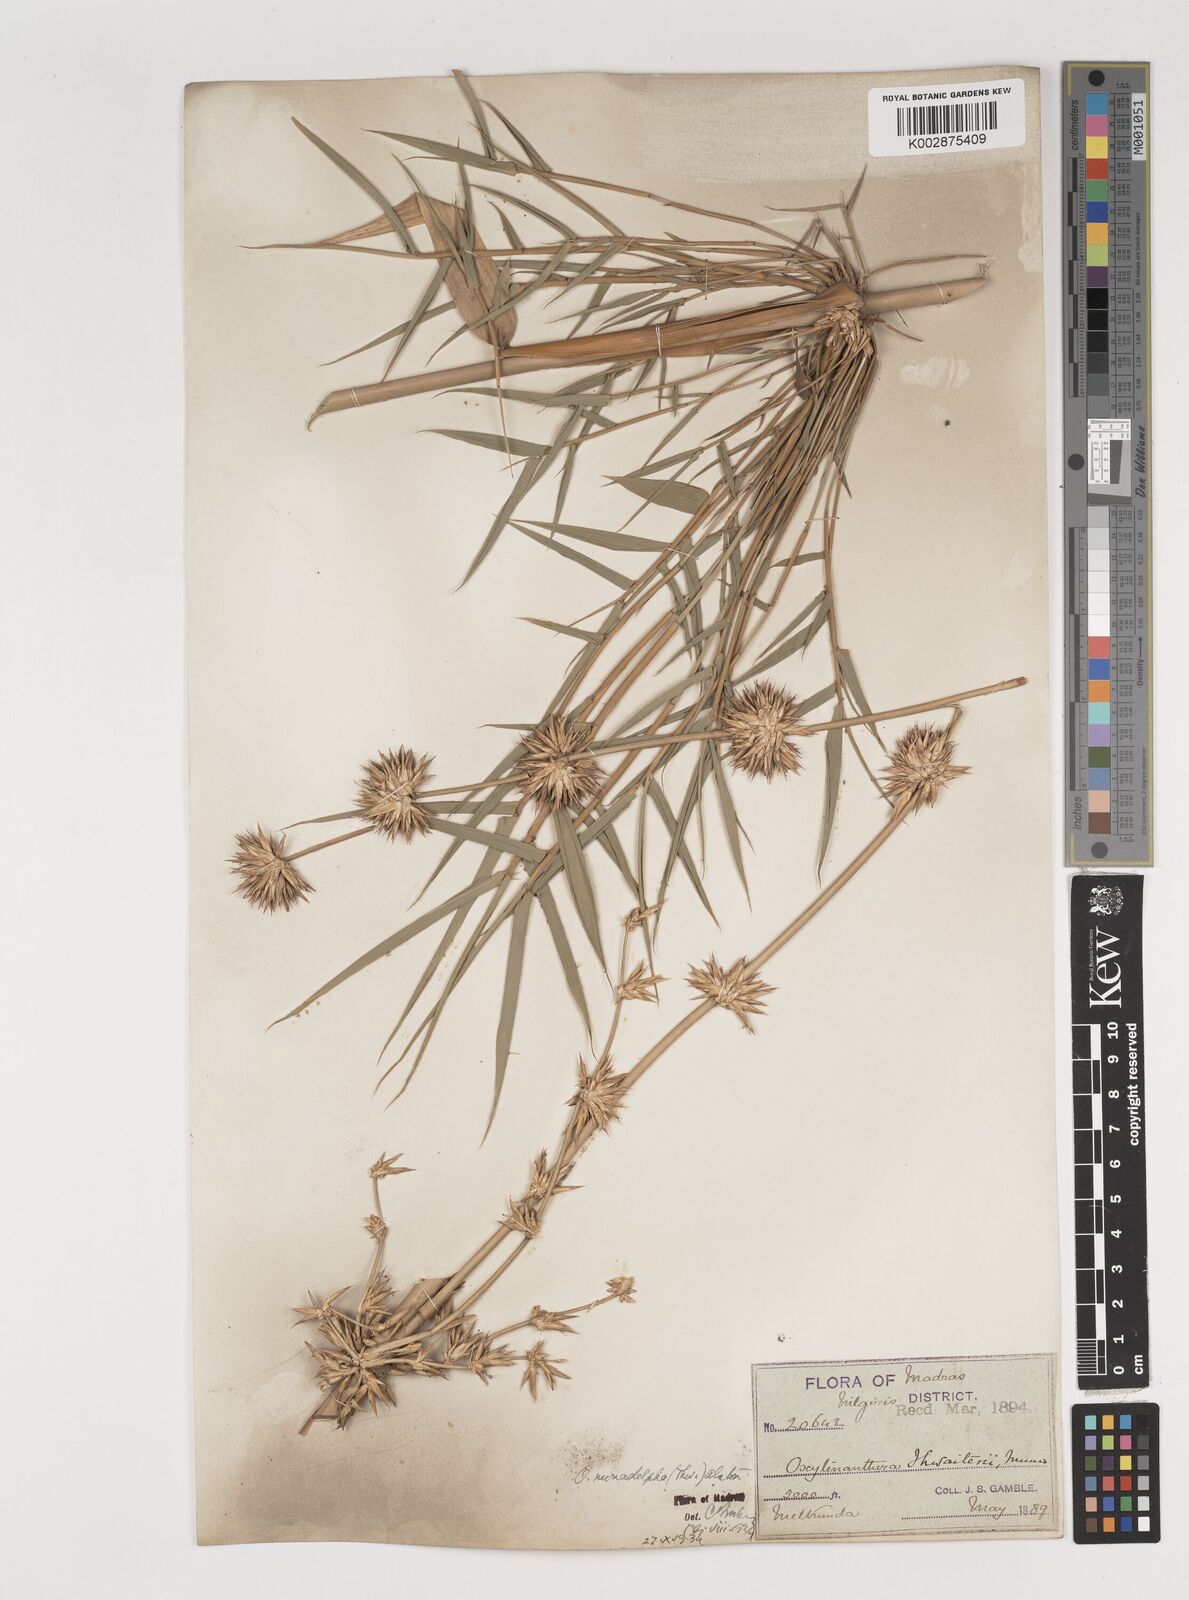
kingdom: Plantae
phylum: Tracheophyta
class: Liliopsida
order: Poales
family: Poaceae
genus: Pseudoxytenanthera
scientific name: Pseudoxytenanthera monadelpha
